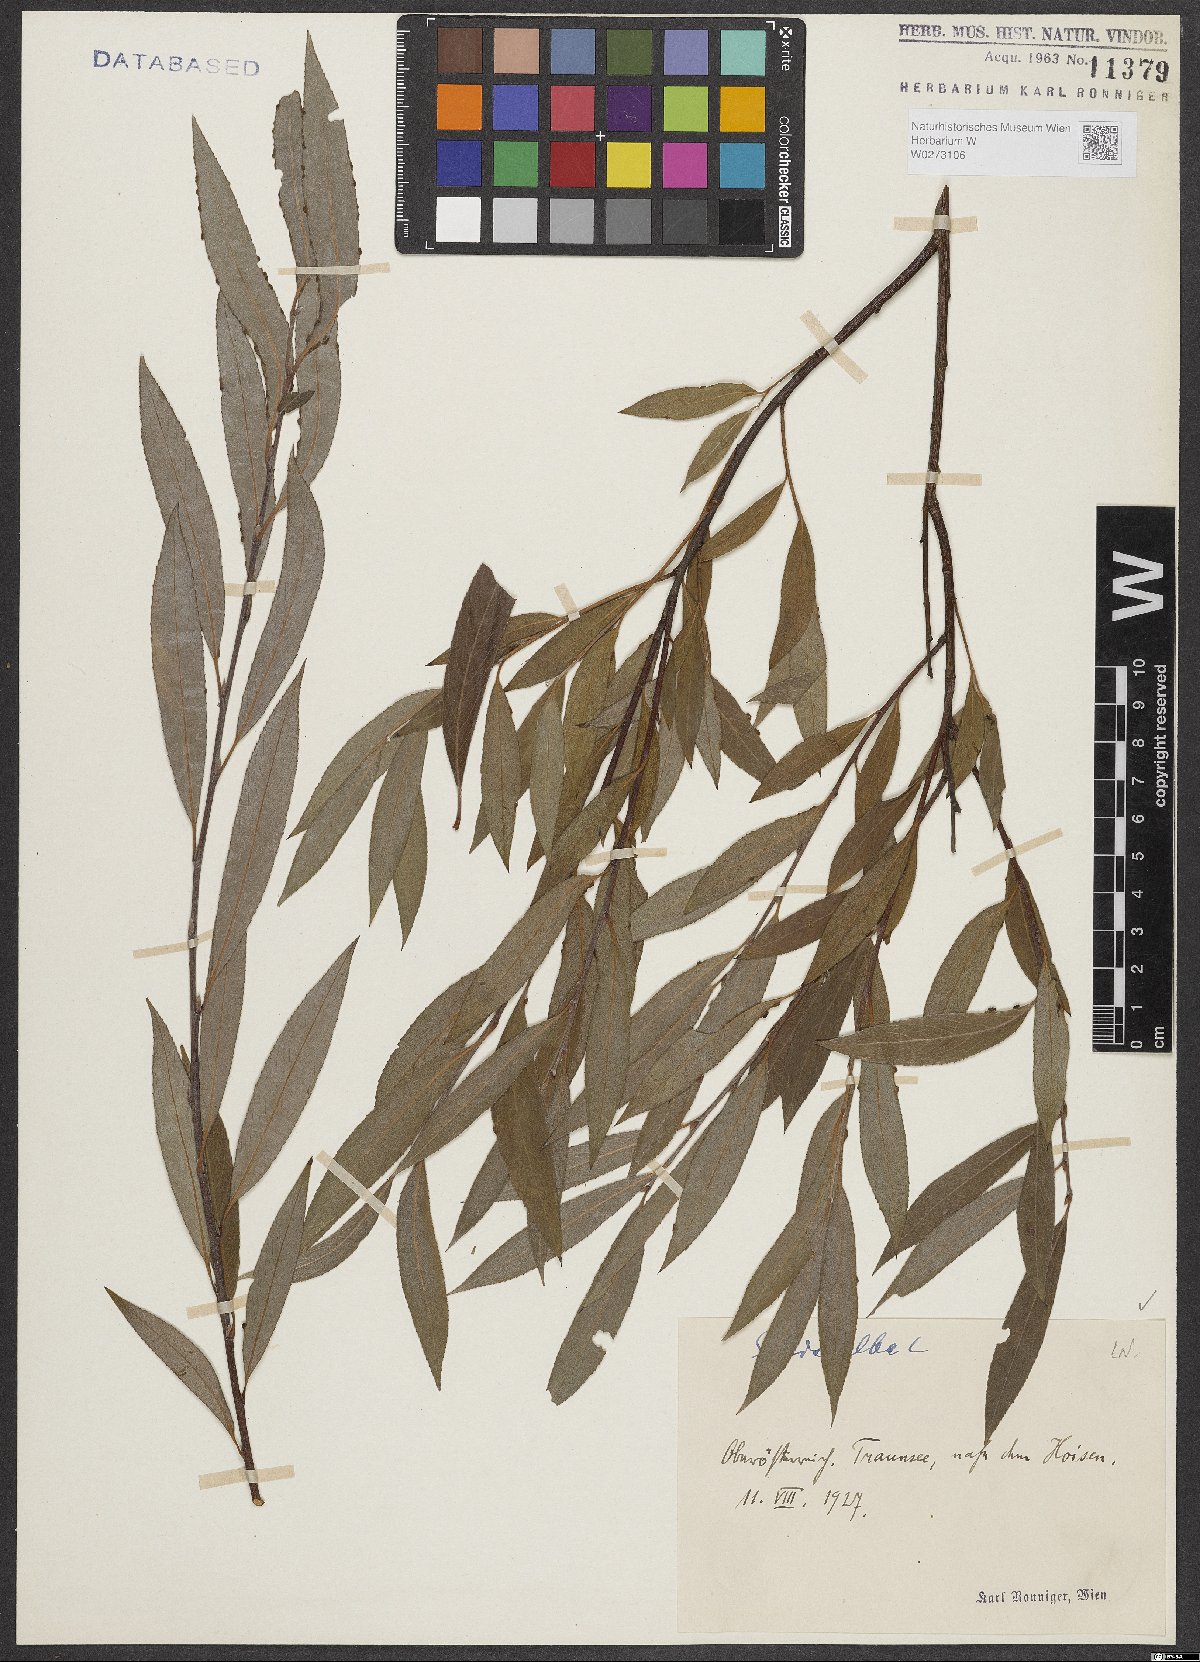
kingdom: Plantae
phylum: Tracheophyta
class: Magnoliopsida
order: Malpighiales
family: Salicaceae
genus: Salix
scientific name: Salix alba
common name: White willow
